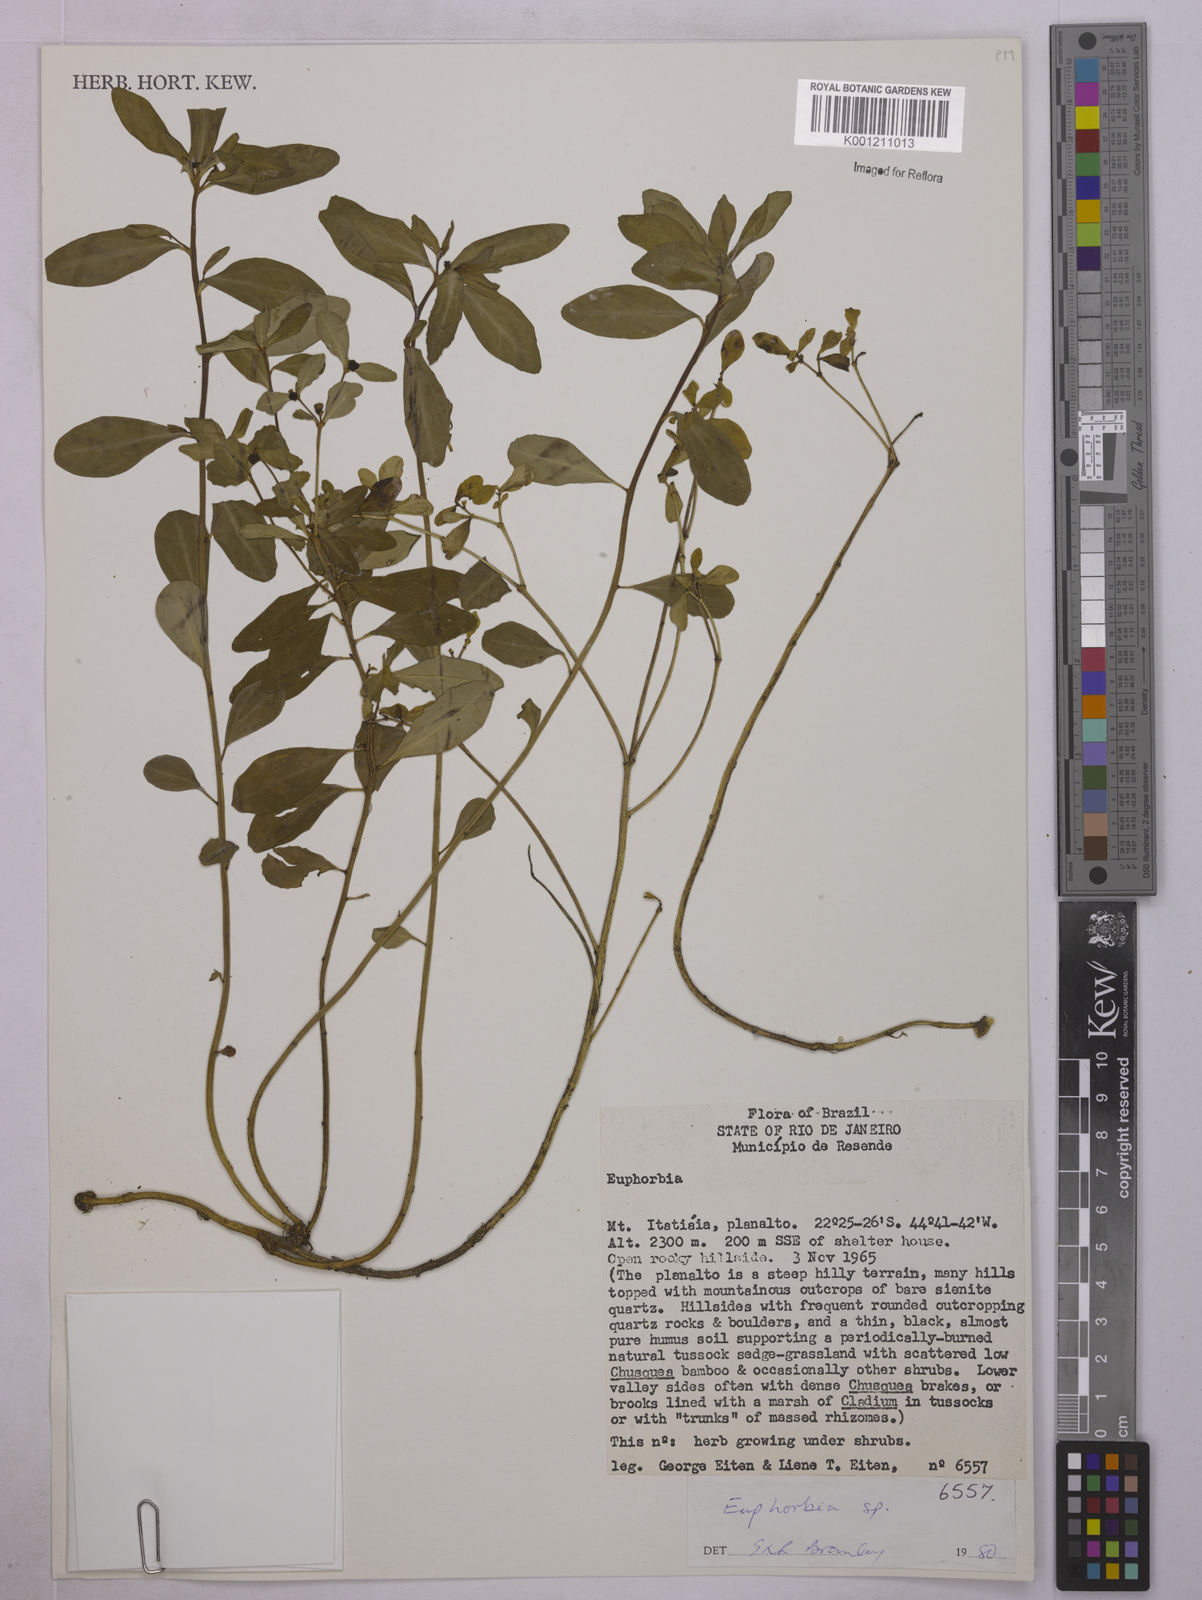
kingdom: Plantae
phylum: Tracheophyta
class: Magnoliopsida
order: Malpighiales
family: Euphorbiaceae
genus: Euphorbia
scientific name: Euphorbia
